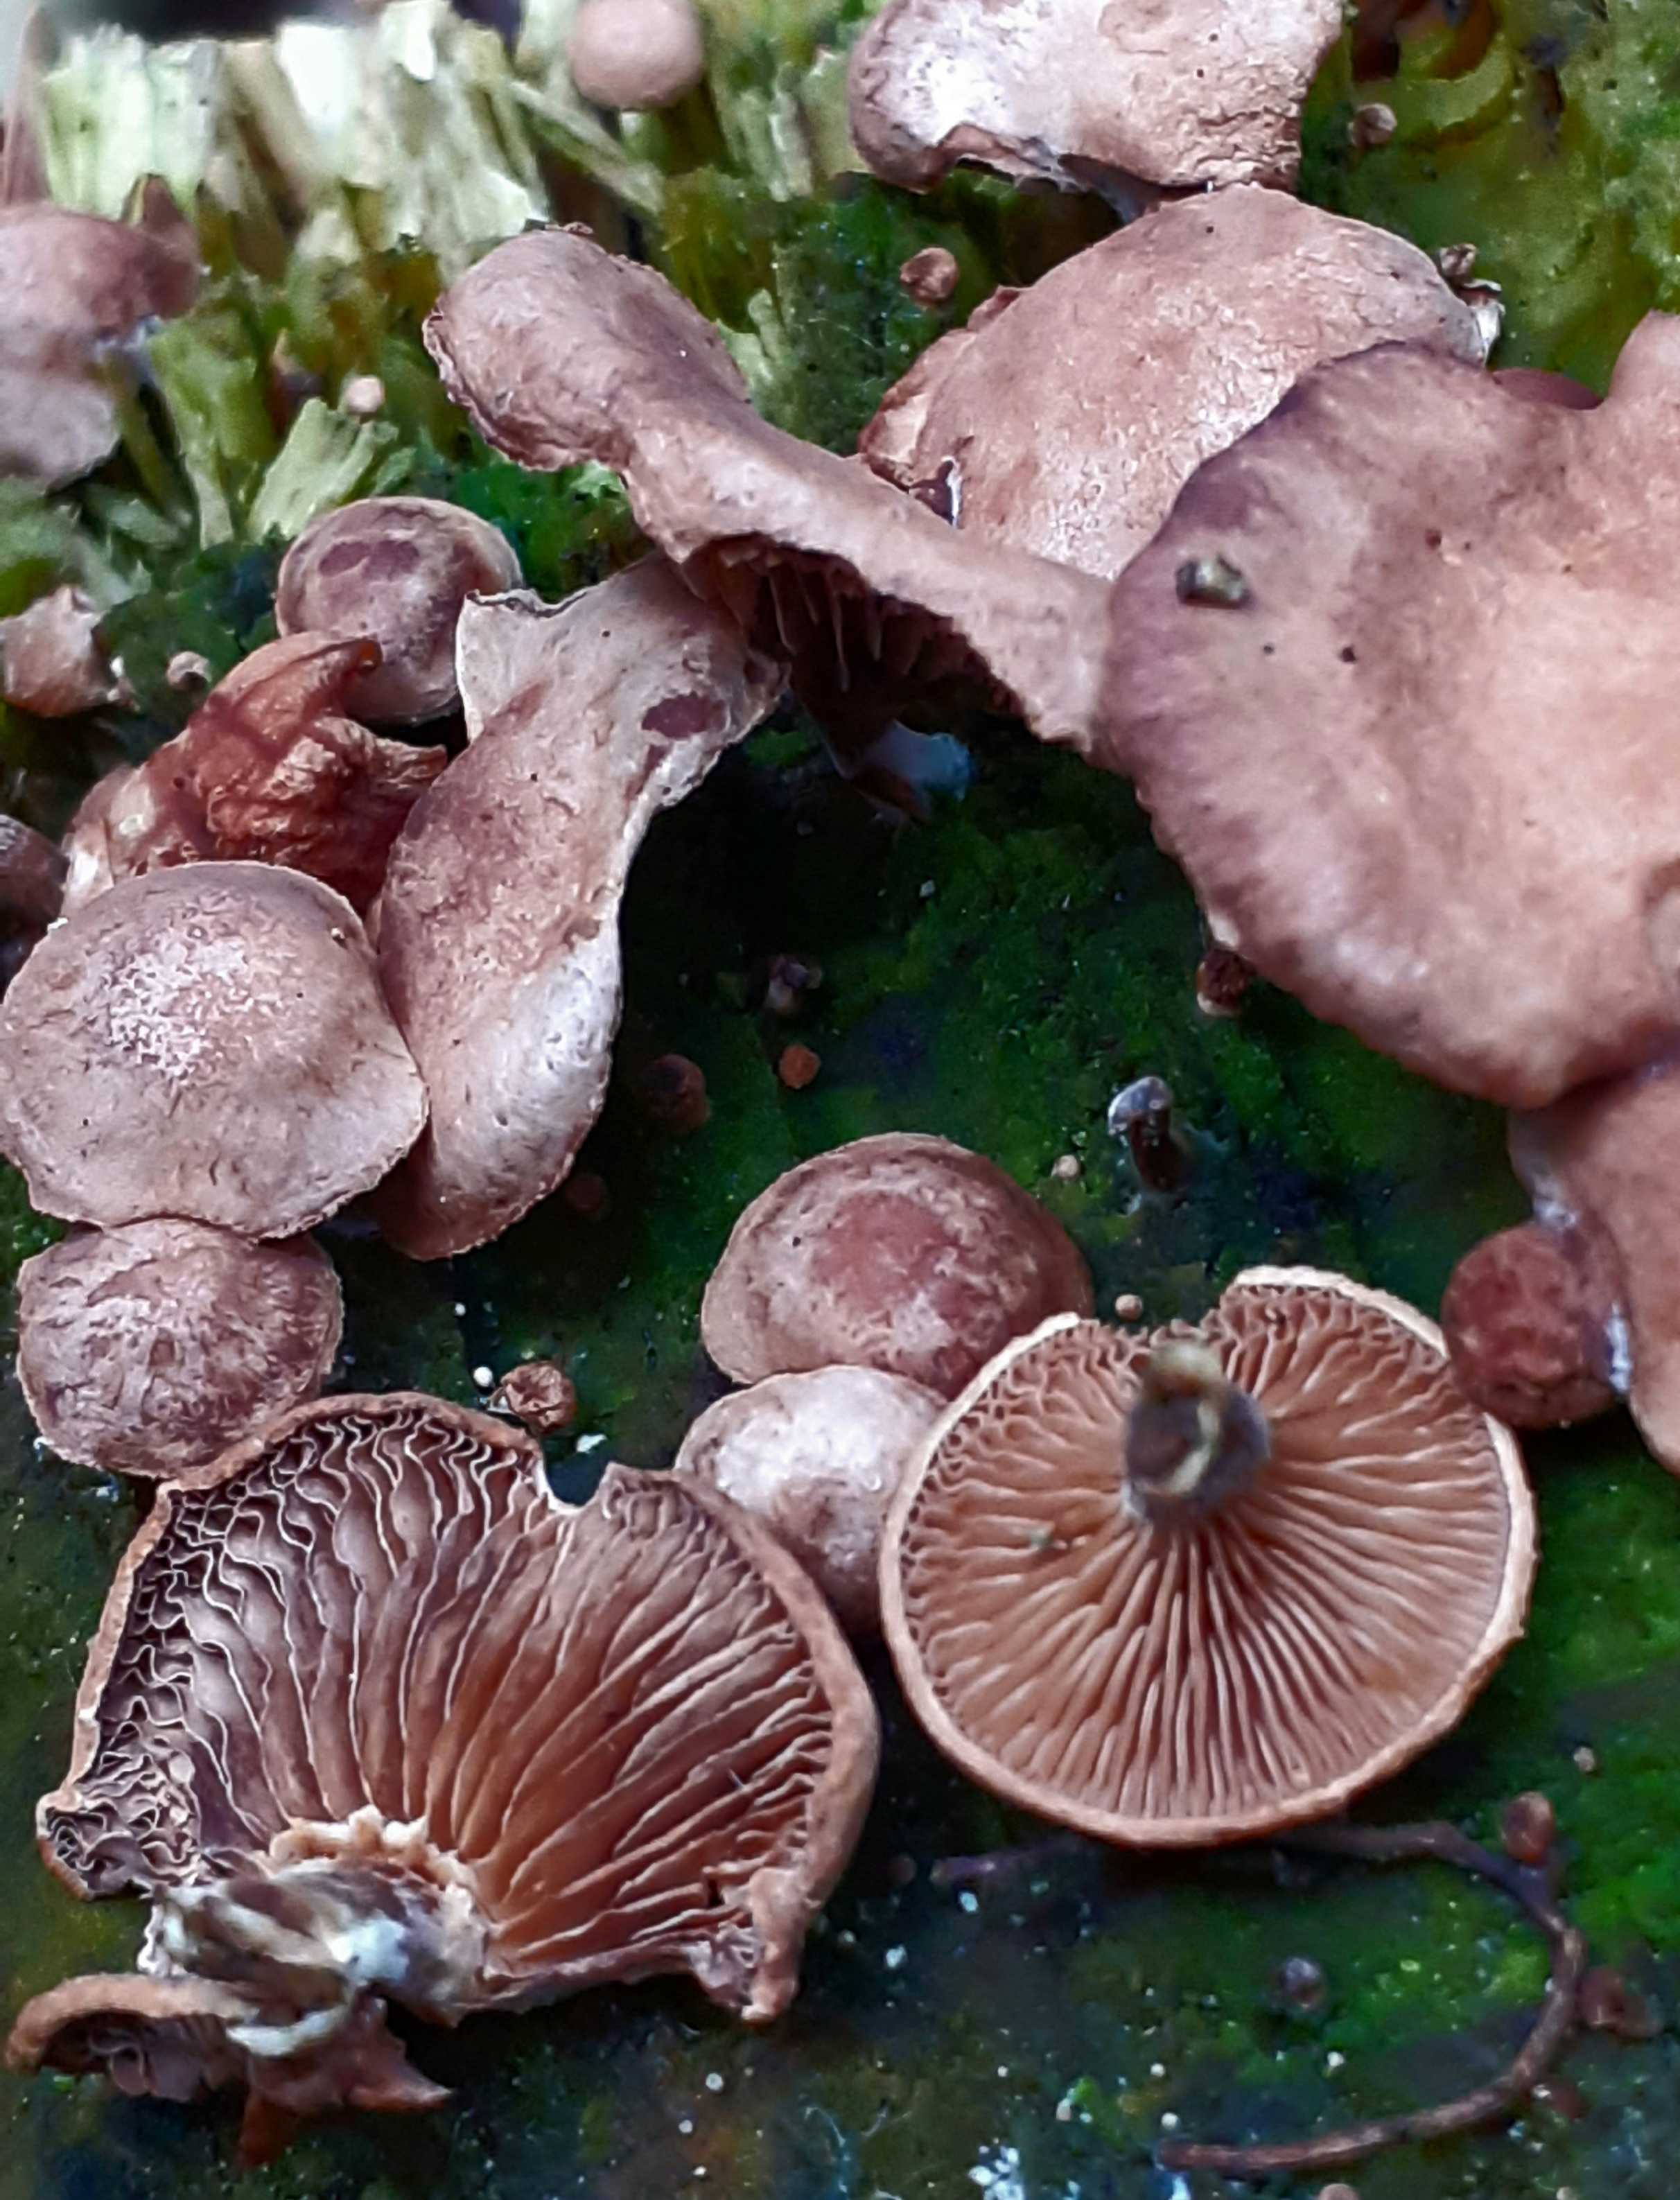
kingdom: Fungi
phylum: Basidiomycota
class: Agaricomycetes
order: Agaricales
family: Strophariaceae
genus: Deconica
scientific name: Deconica horizontalis
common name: ved-stråhat
